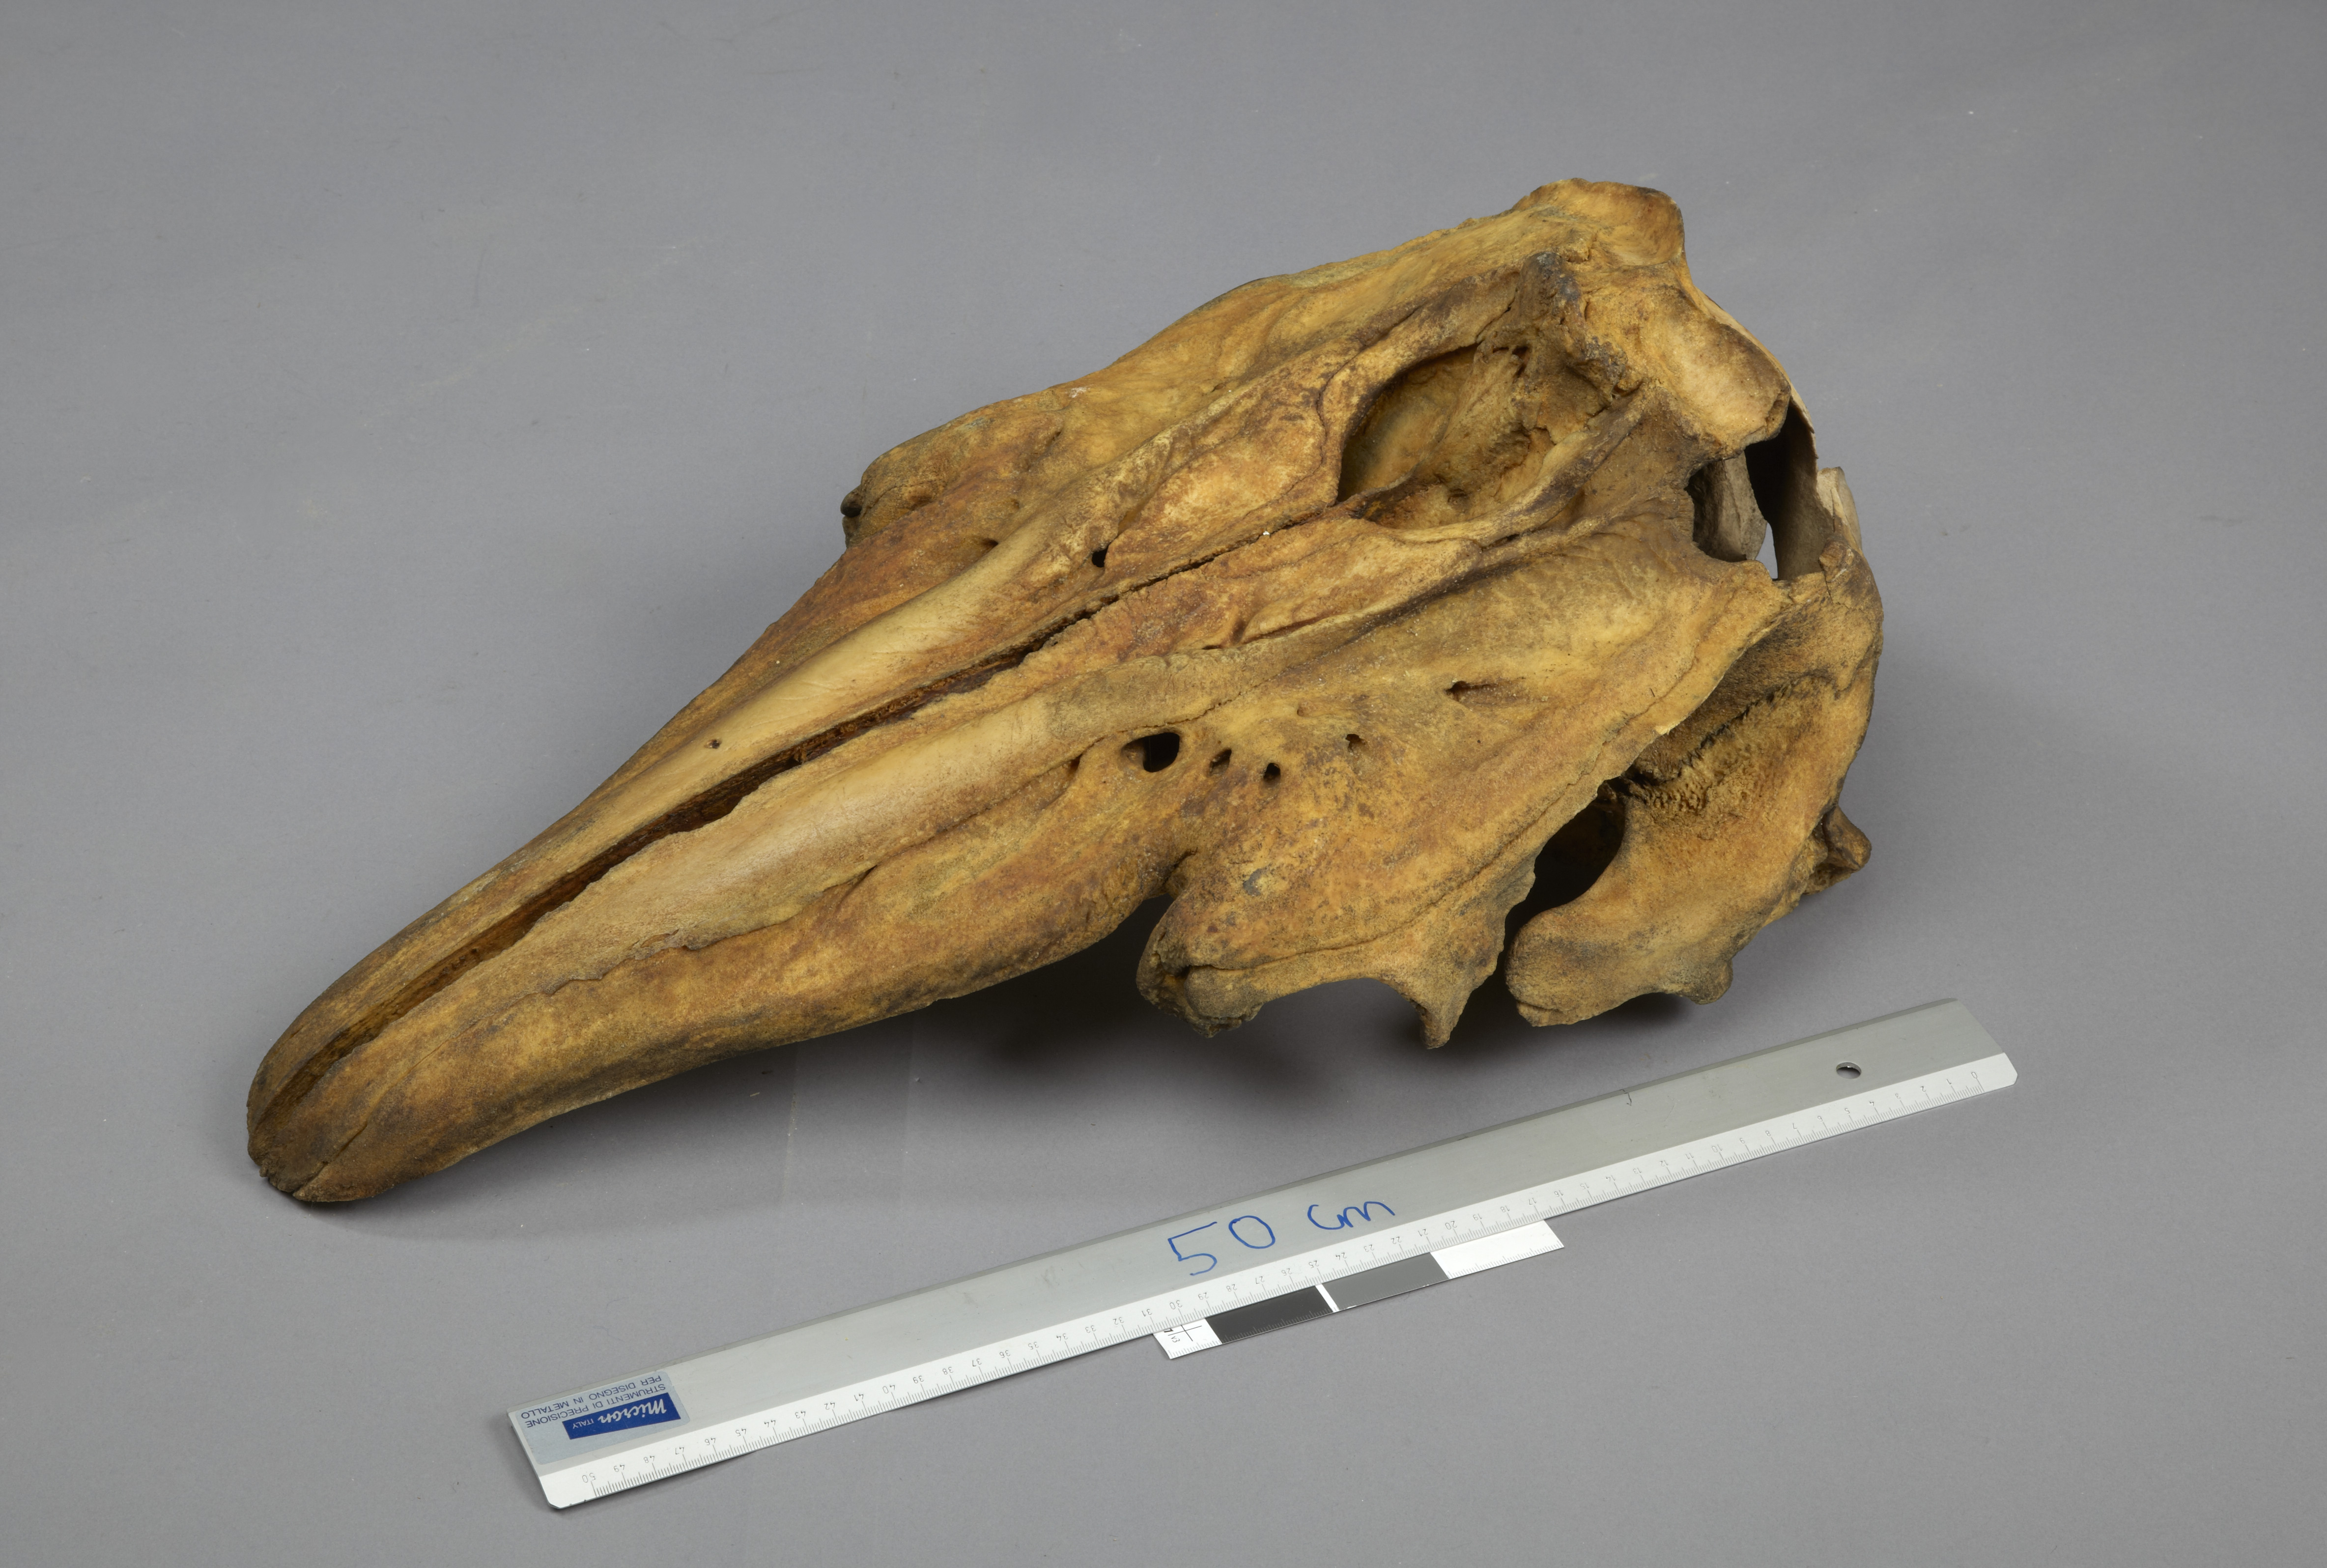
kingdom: Animalia
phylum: Chordata
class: Mammalia
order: Cetacea
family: Monodontidae
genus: Delphinapterus
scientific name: Delphinapterus leucas
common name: Beluga
